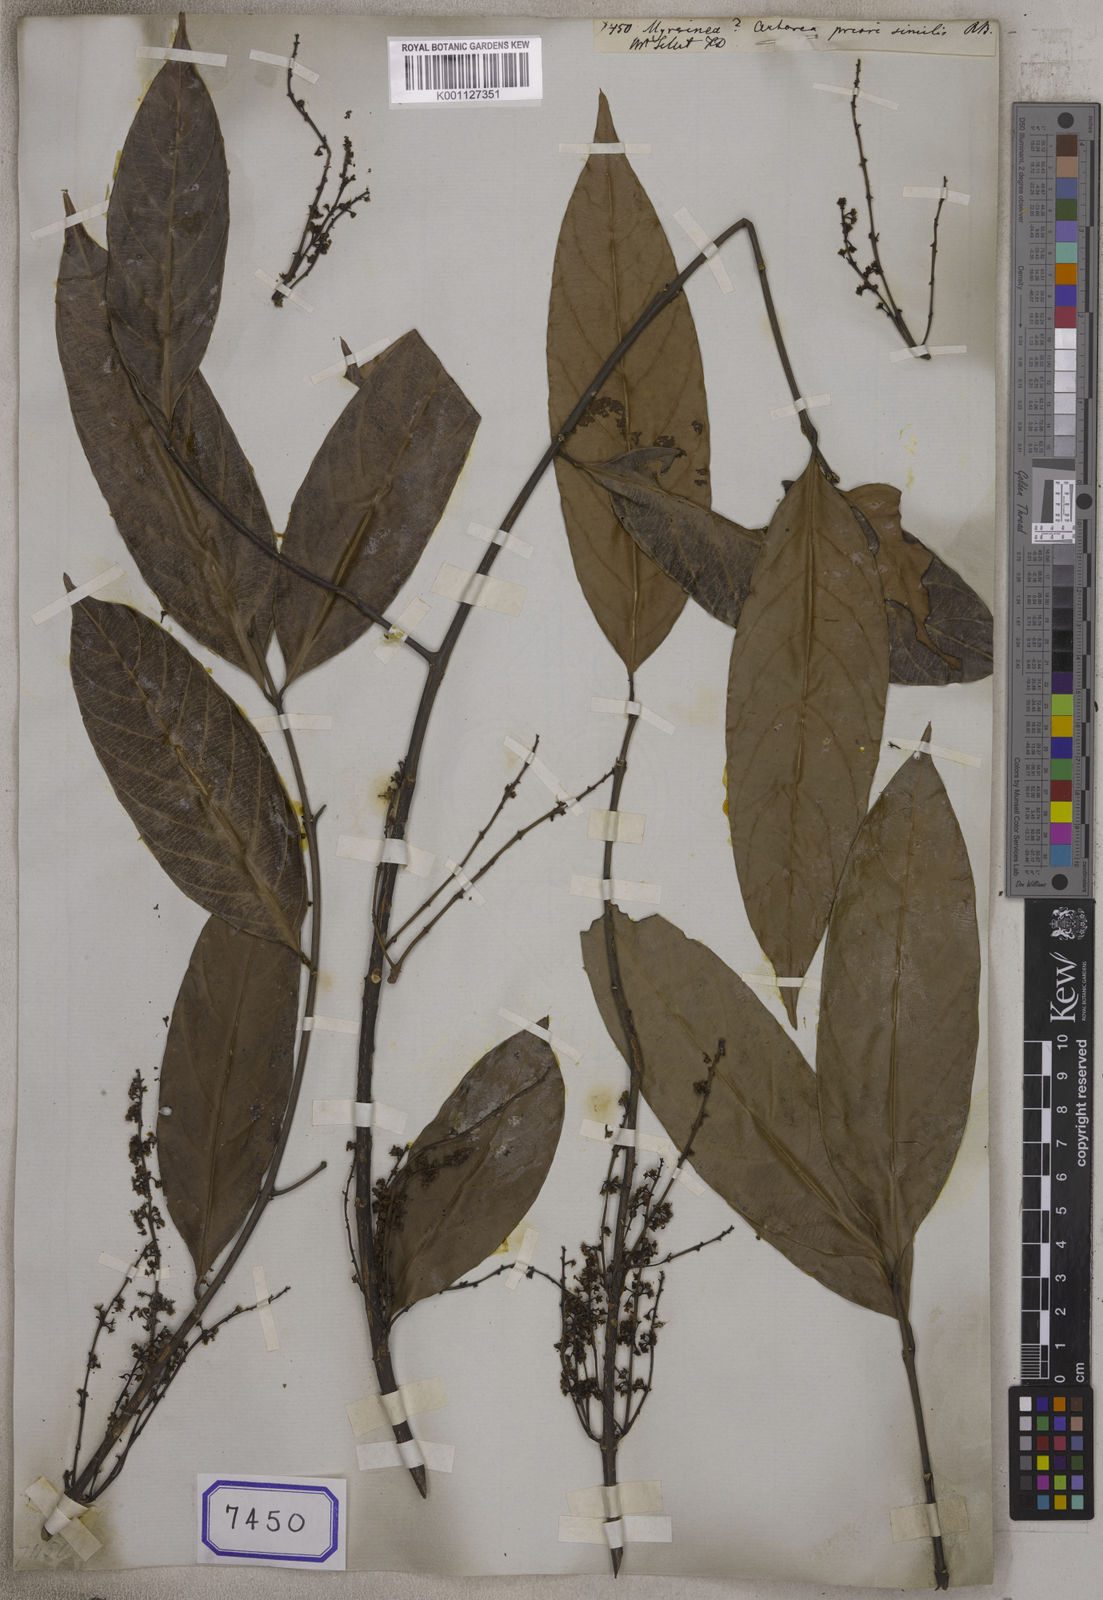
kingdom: Plantae
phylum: Tracheophyta
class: Magnoliopsida
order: Ericales
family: Primulaceae
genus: Myrsine
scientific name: Myrsine
